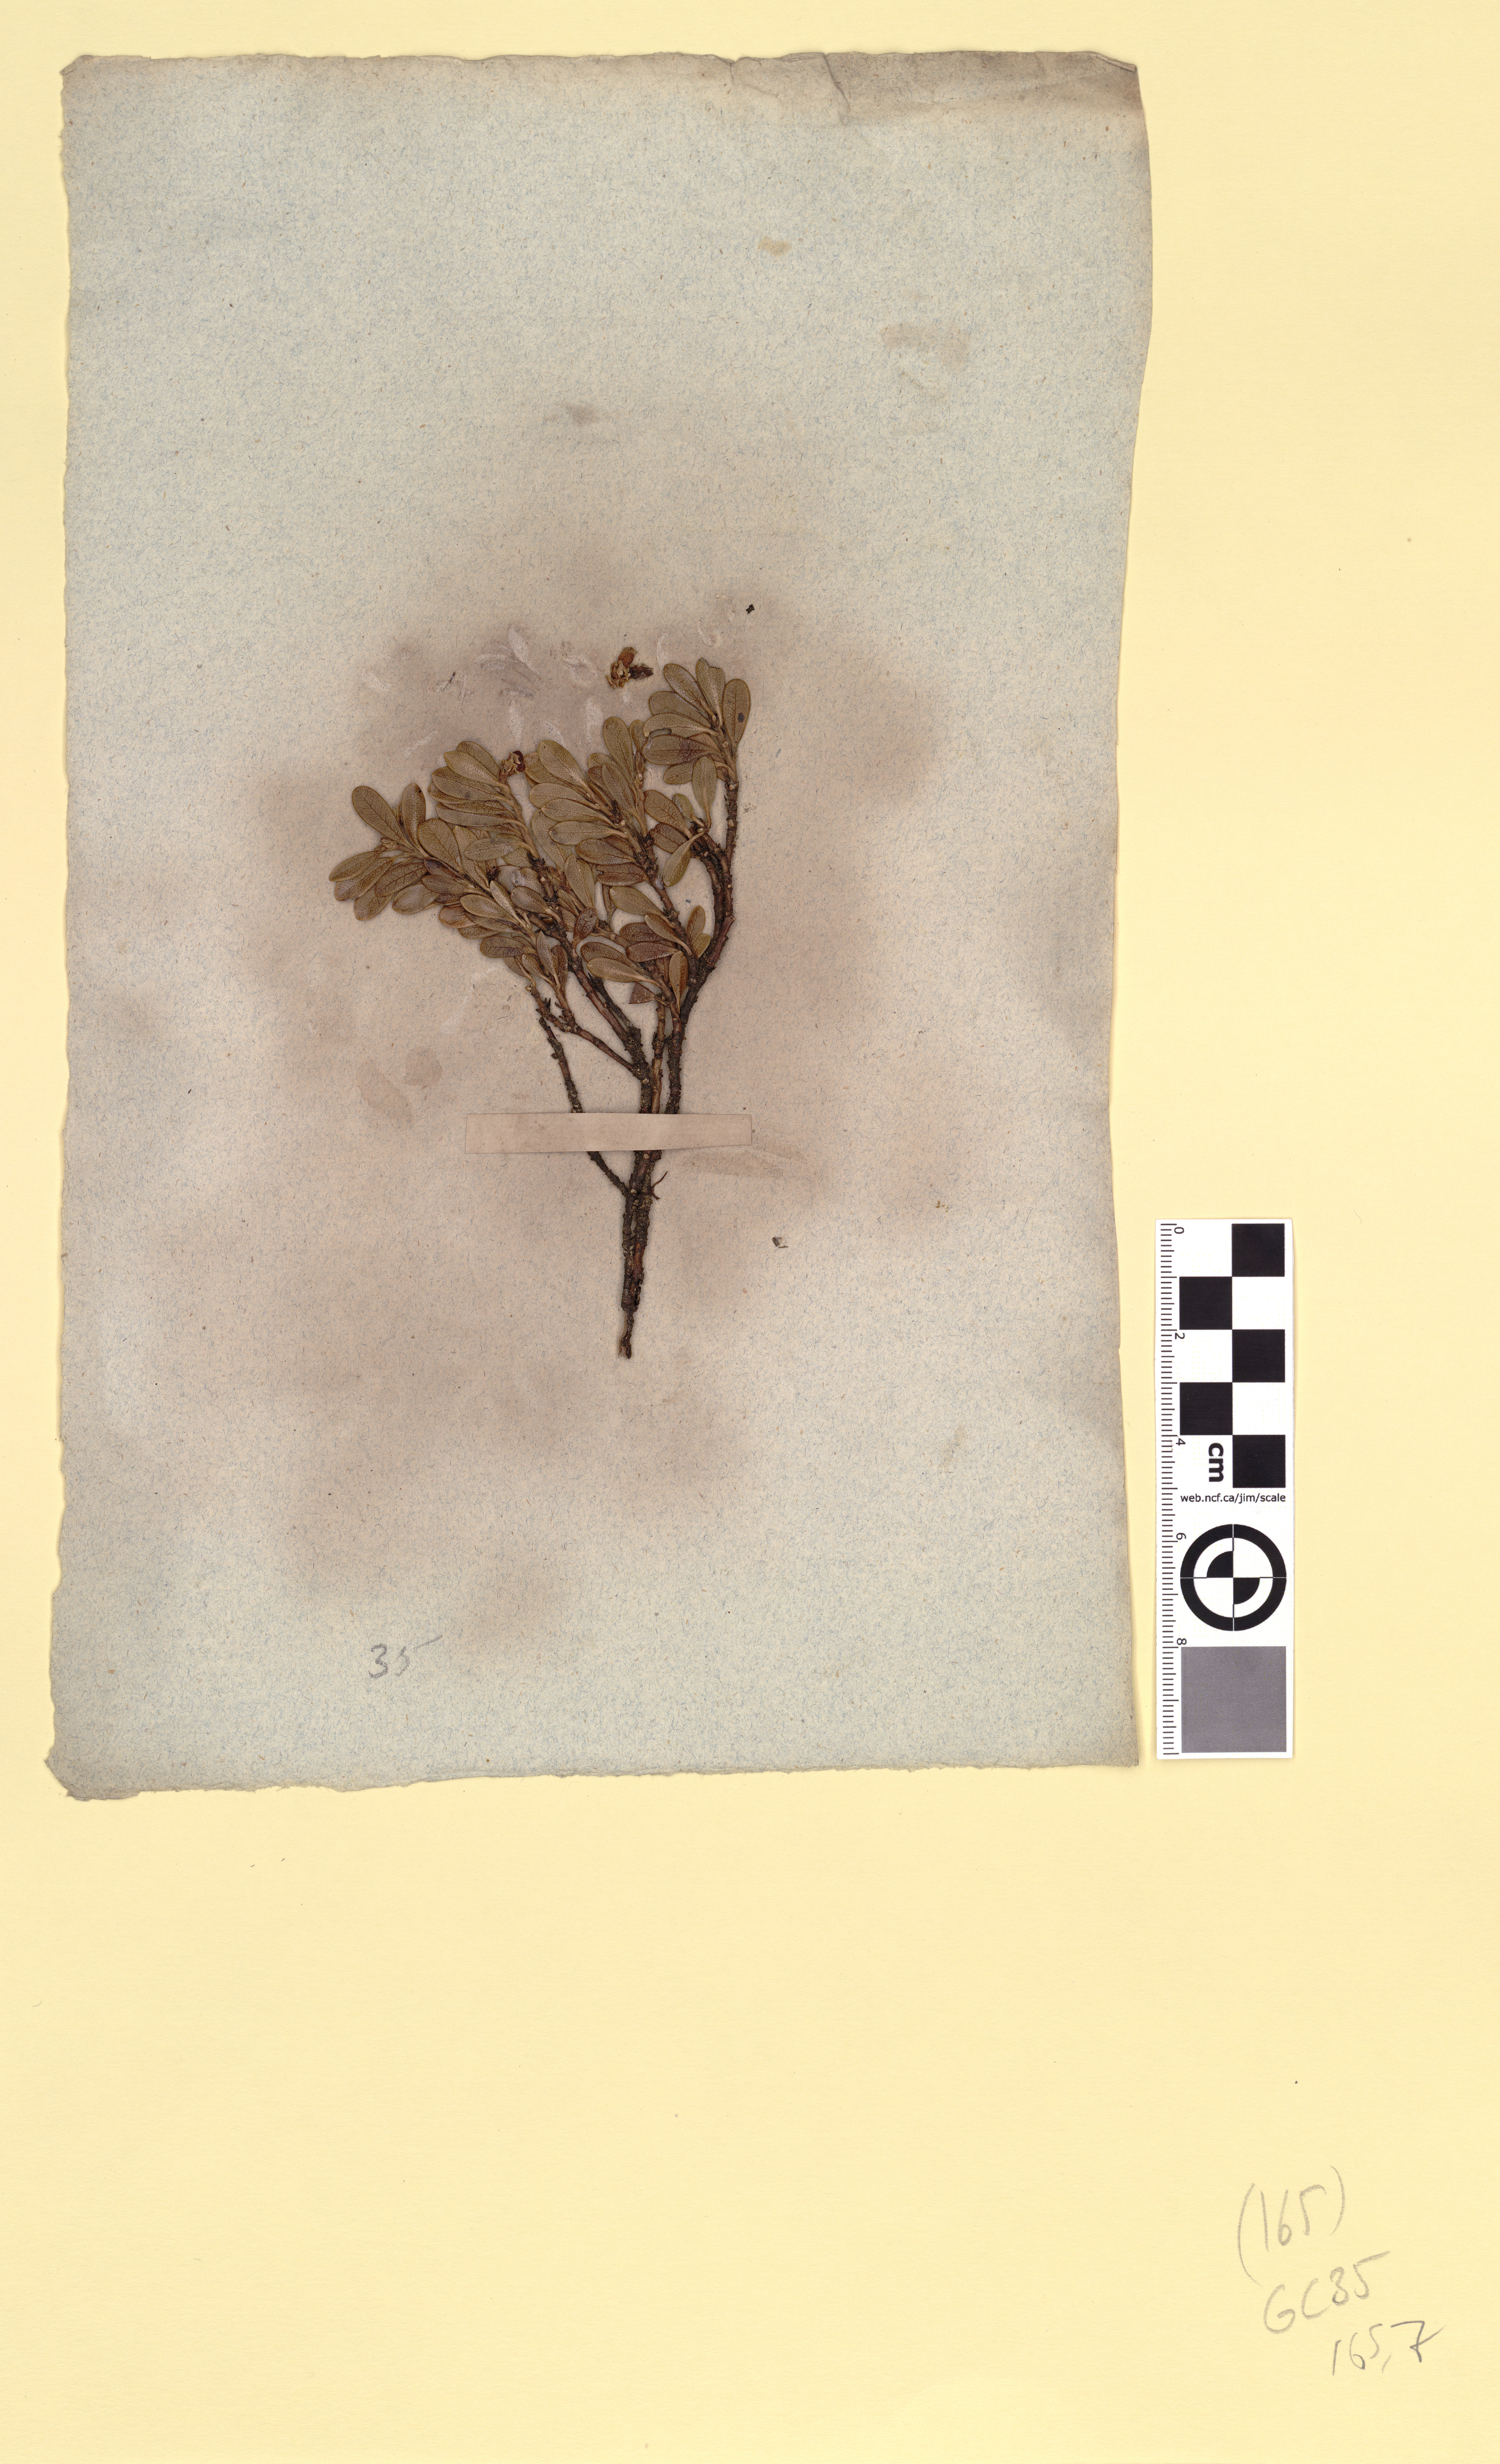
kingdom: Plantae
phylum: Tracheophyta
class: Magnoliopsida
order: Ericales
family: Ericaceae
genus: Arctostaphylos
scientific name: Arctostaphylos uva-ursi
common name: Bearberry
